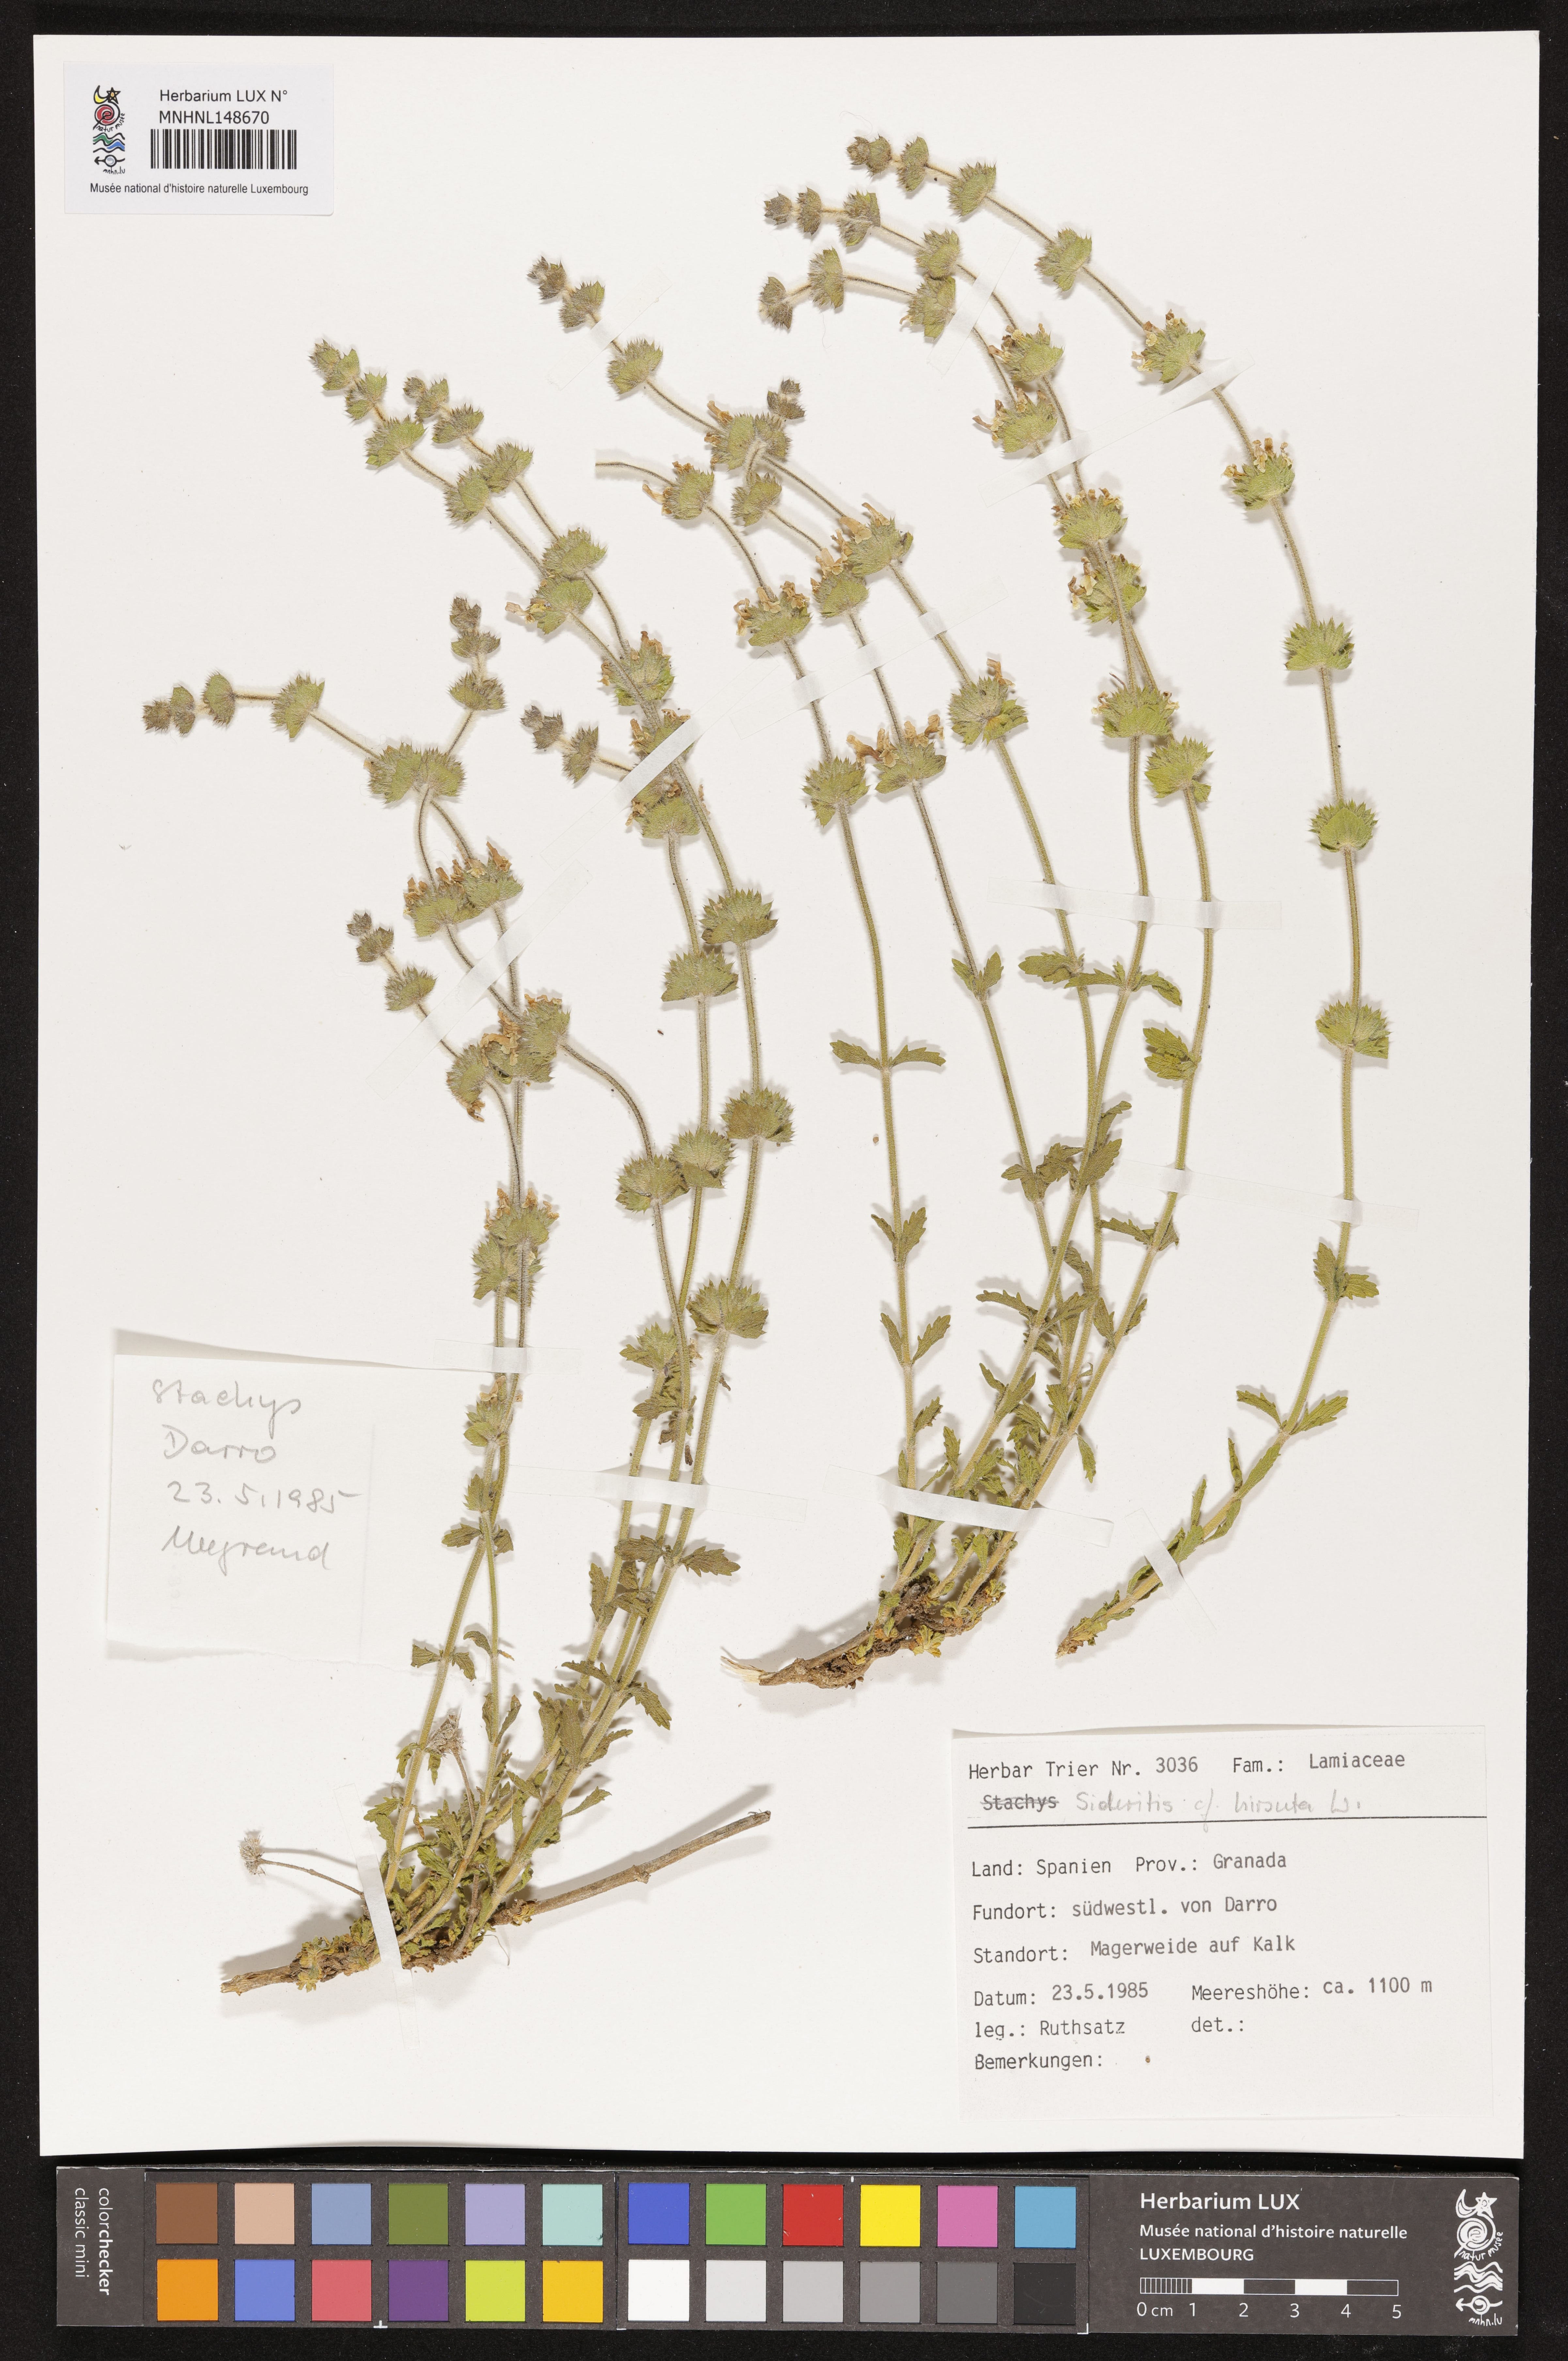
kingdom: Plantae
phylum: Tracheophyta
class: Magnoliopsida
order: Lamiales
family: Lamiaceae
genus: Sideritis
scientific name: Sideritis hirsuta
